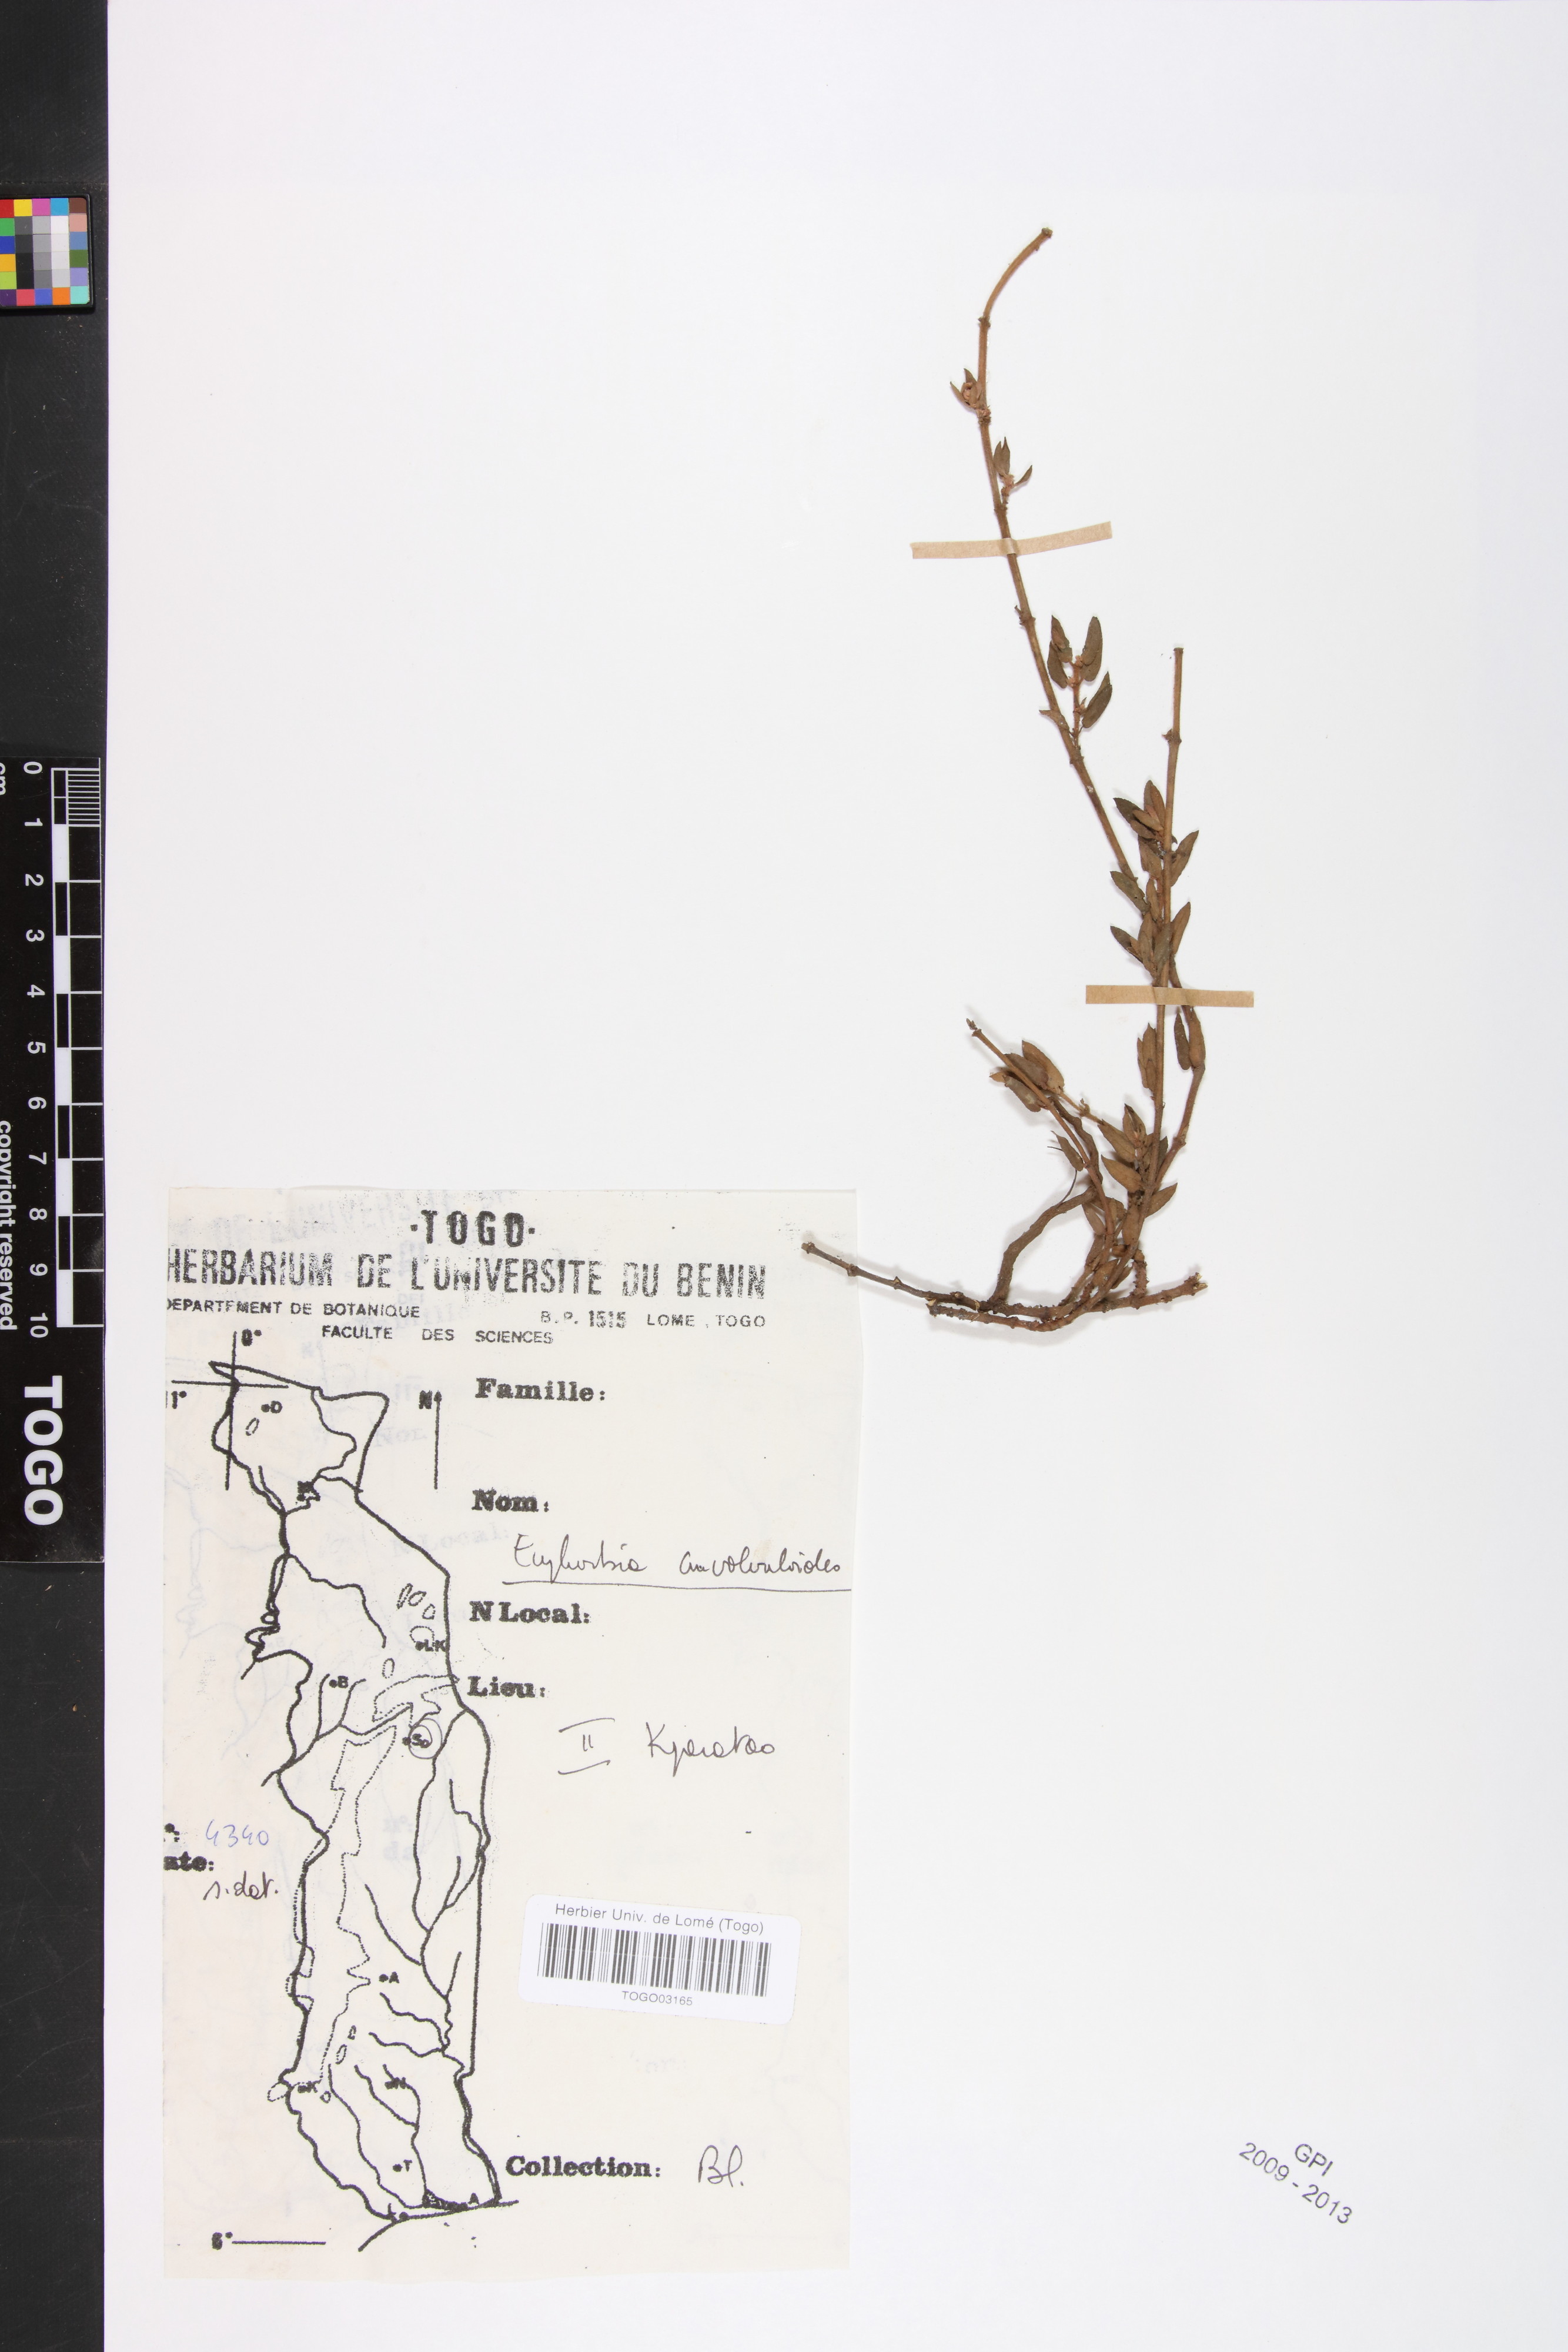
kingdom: Plantae
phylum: Tracheophyta
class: Magnoliopsida
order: Malpighiales
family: Euphorbiaceae
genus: Euphorbia
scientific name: Euphorbia convolvuloides
